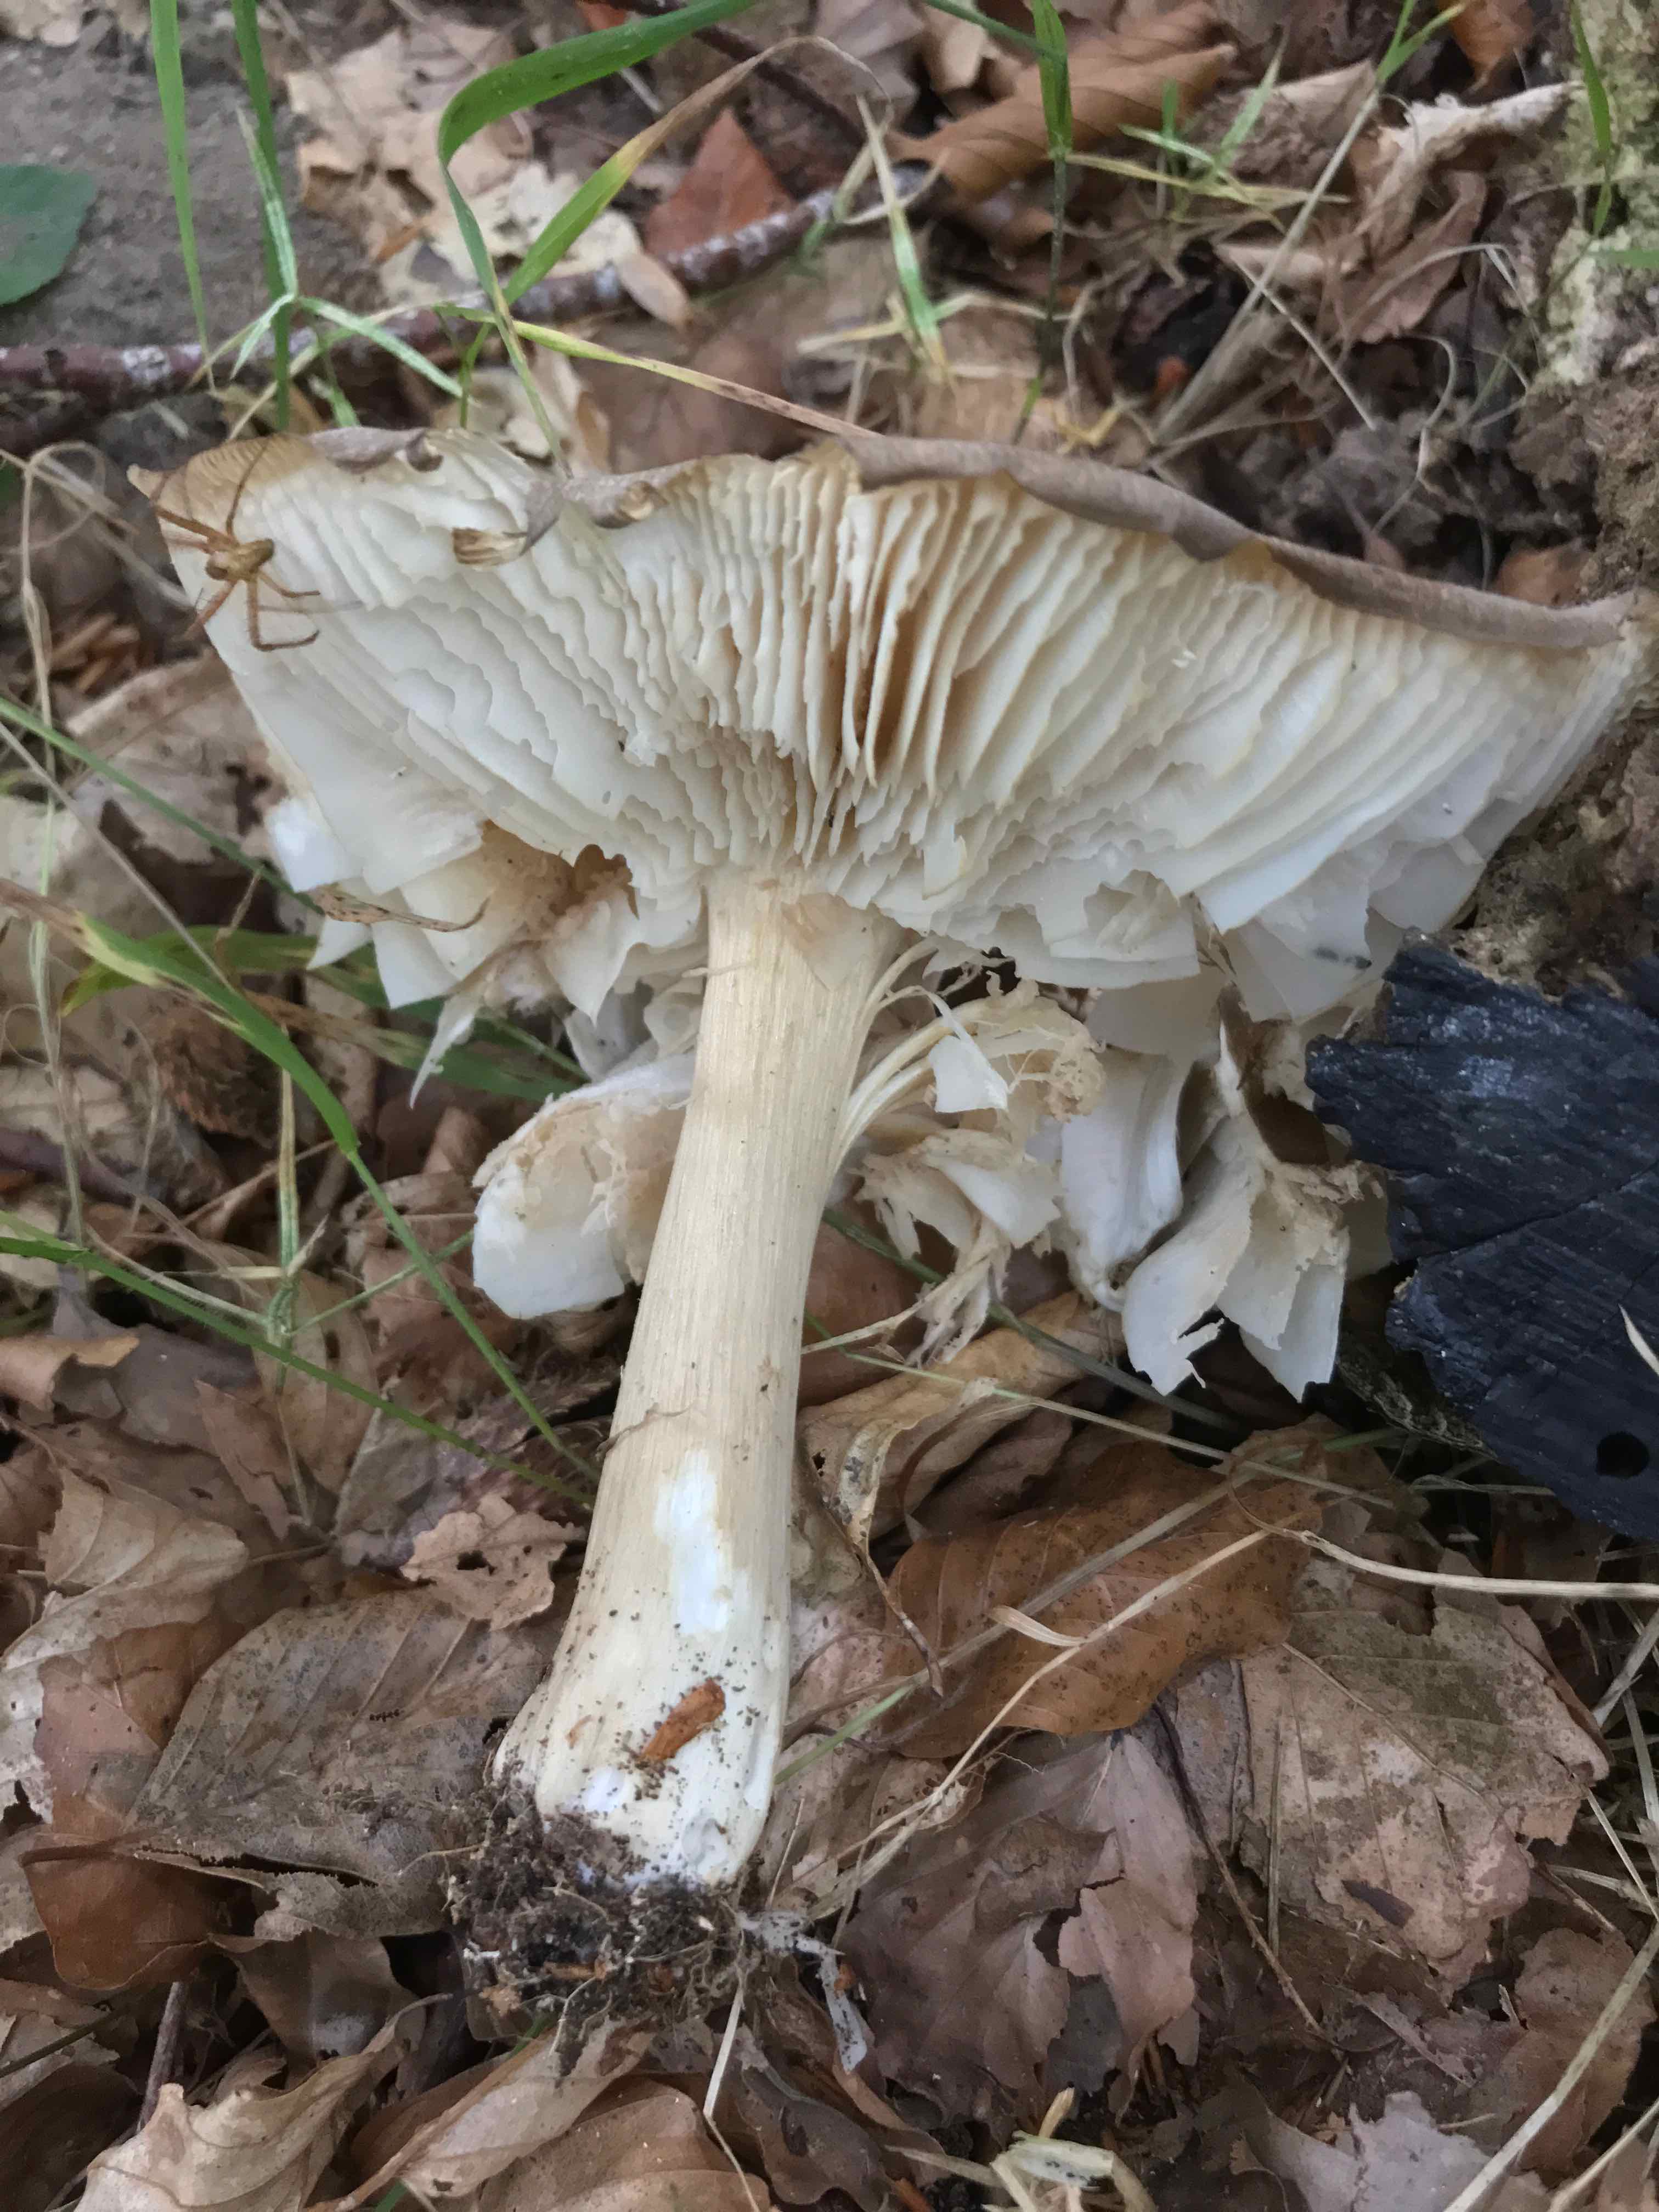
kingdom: Fungi
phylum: Basidiomycota
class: Agaricomycetes
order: Agaricales
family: Tricholomataceae
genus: Megacollybia
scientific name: Megacollybia platyphylla
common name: bredbladet væbnerhat
